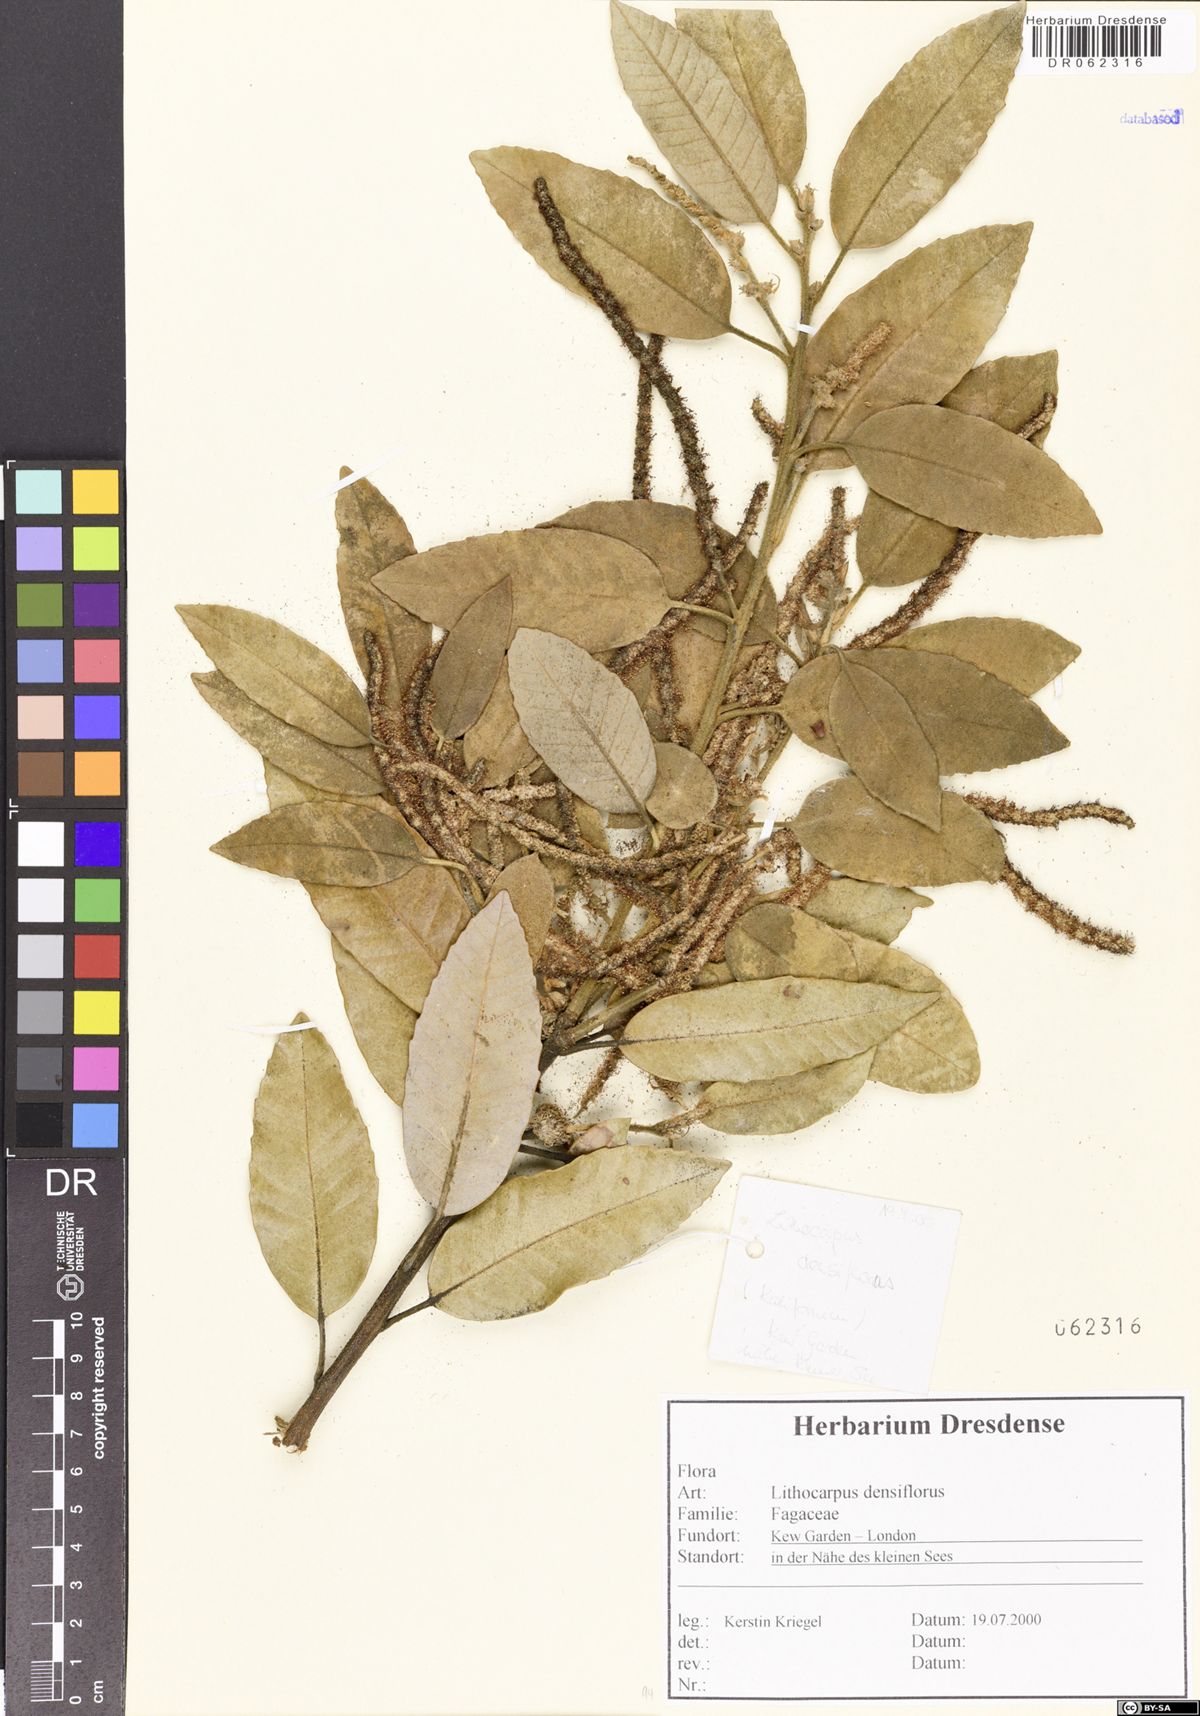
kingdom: Plantae
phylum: Tracheophyta
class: Magnoliopsida
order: Fagales
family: Fagaceae
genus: Notholithocarpus
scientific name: Notholithocarpus densiflorus
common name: Tan bark oak
